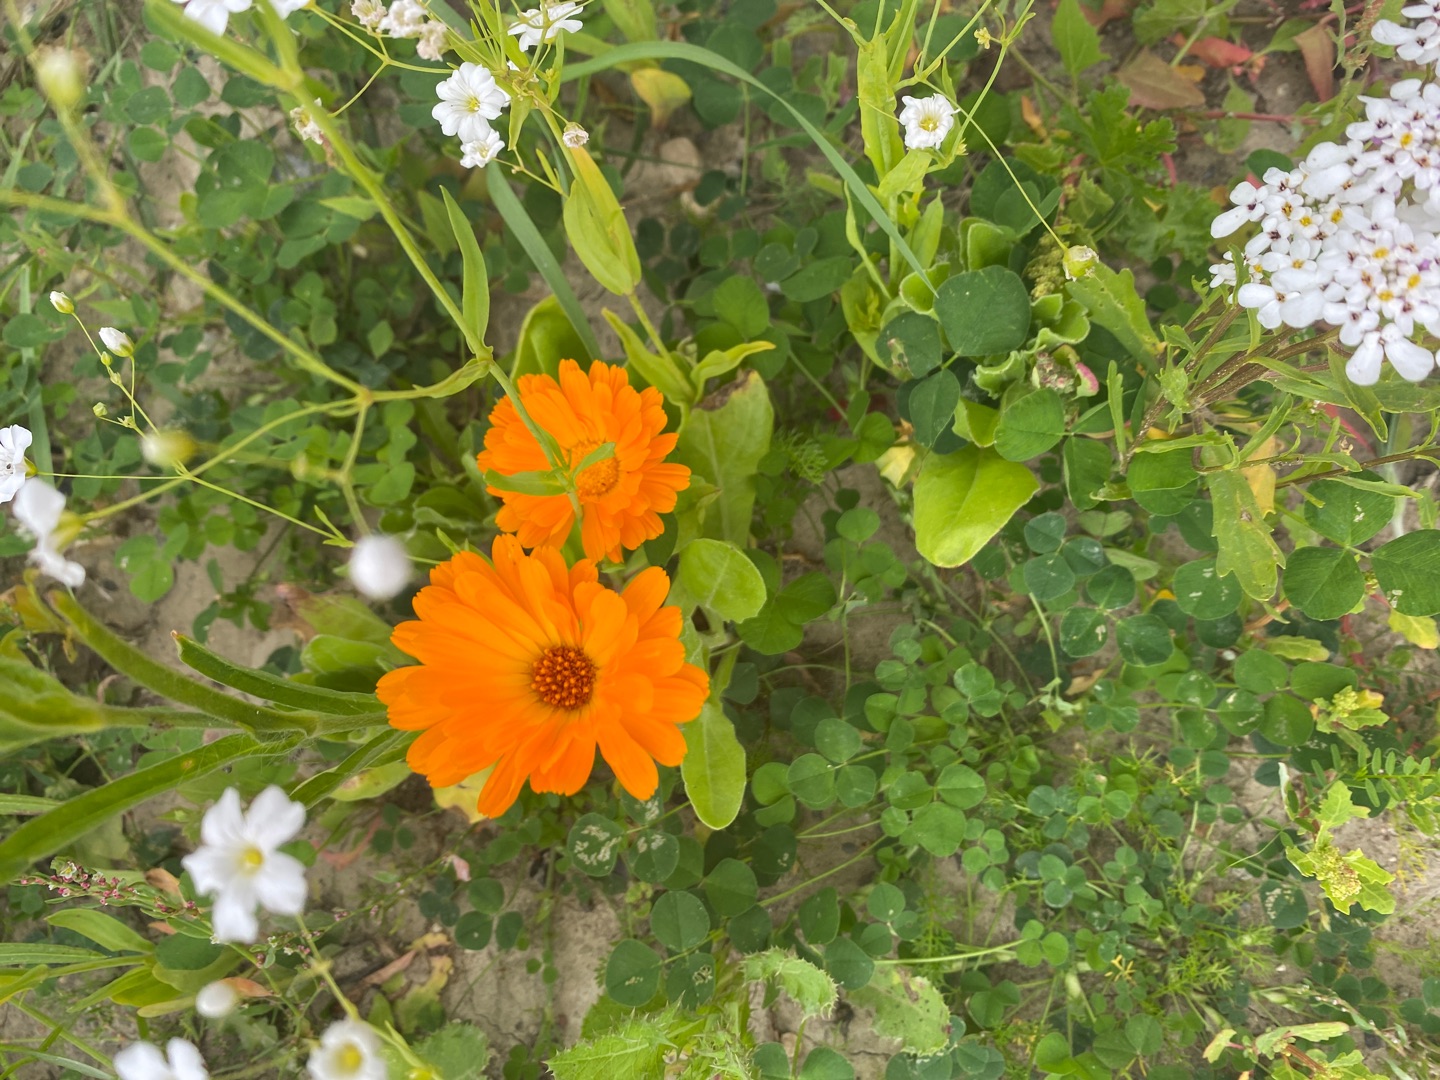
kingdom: Plantae
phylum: Tracheophyta
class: Magnoliopsida
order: Asterales
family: Asteraceae
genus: Calendula
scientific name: Calendula officinalis
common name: Have-morgenfrue
